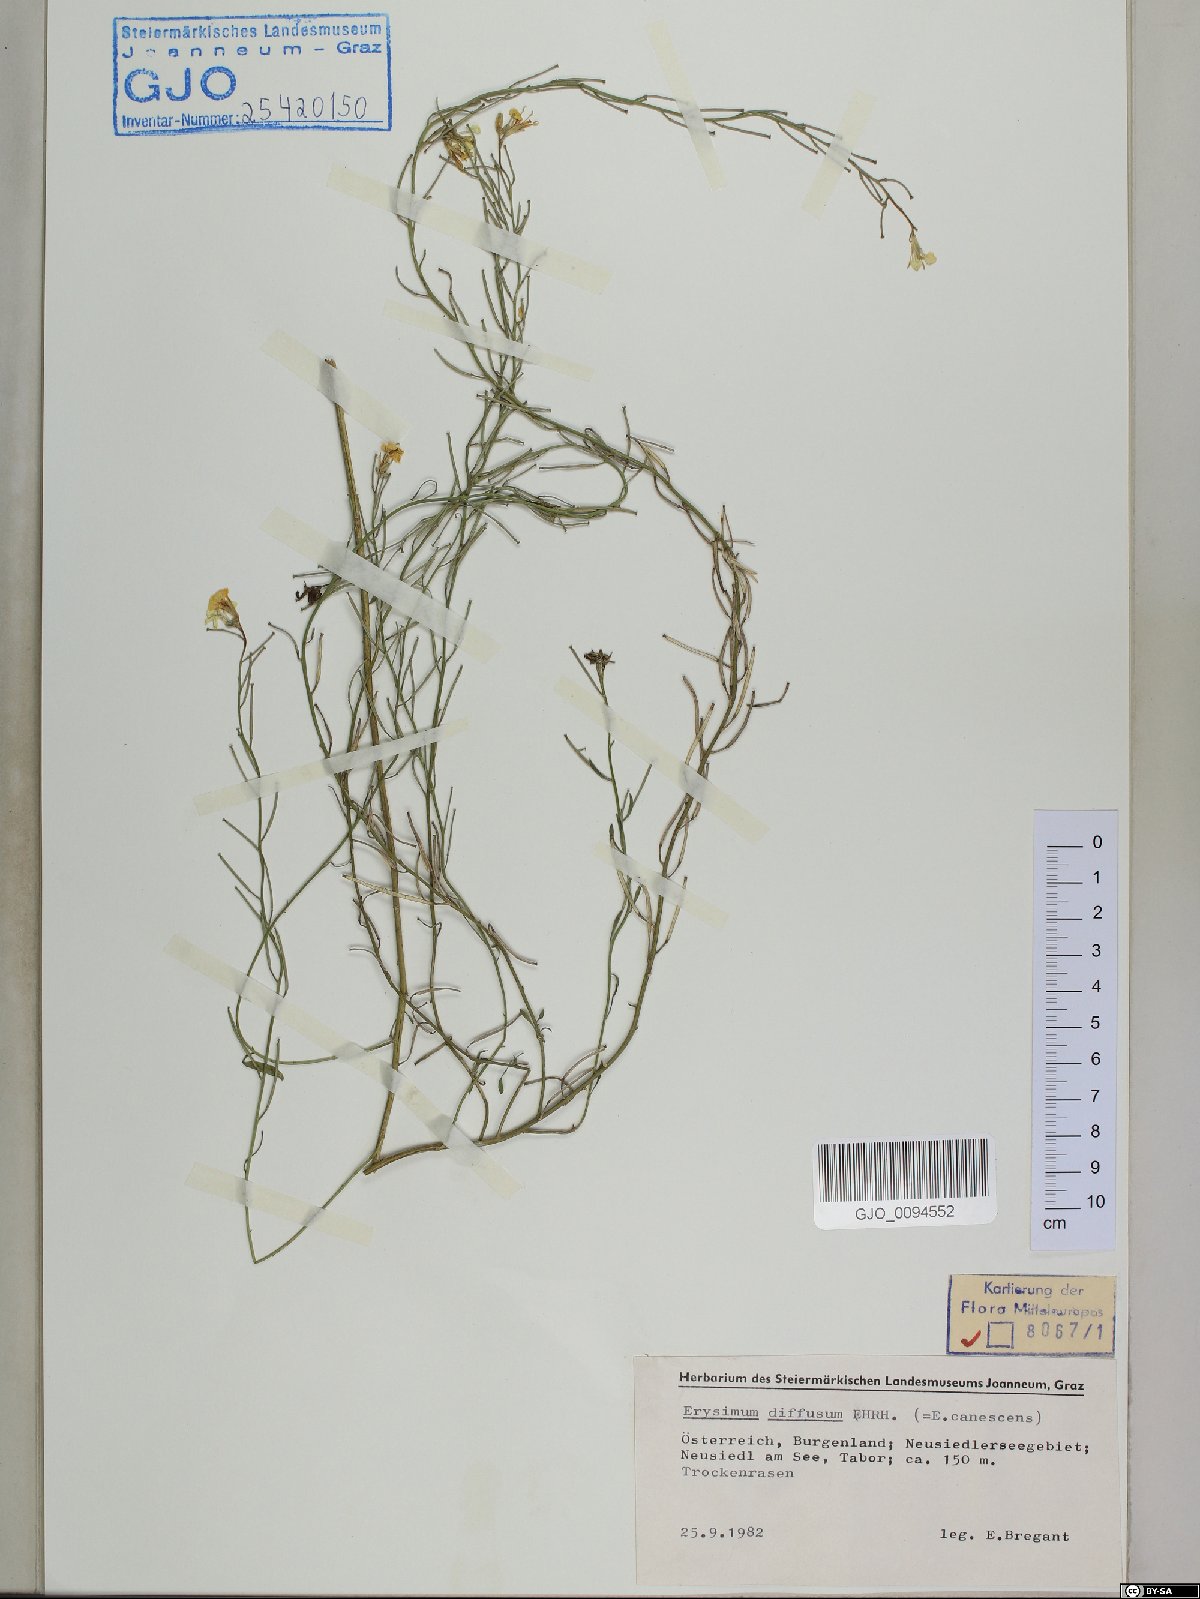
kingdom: Plantae
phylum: Tracheophyta
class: Magnoliopsida
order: Brassicales
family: Brassicaceae
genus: Erysimum
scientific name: Erysimum diffusum
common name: Diffuse wallflower
